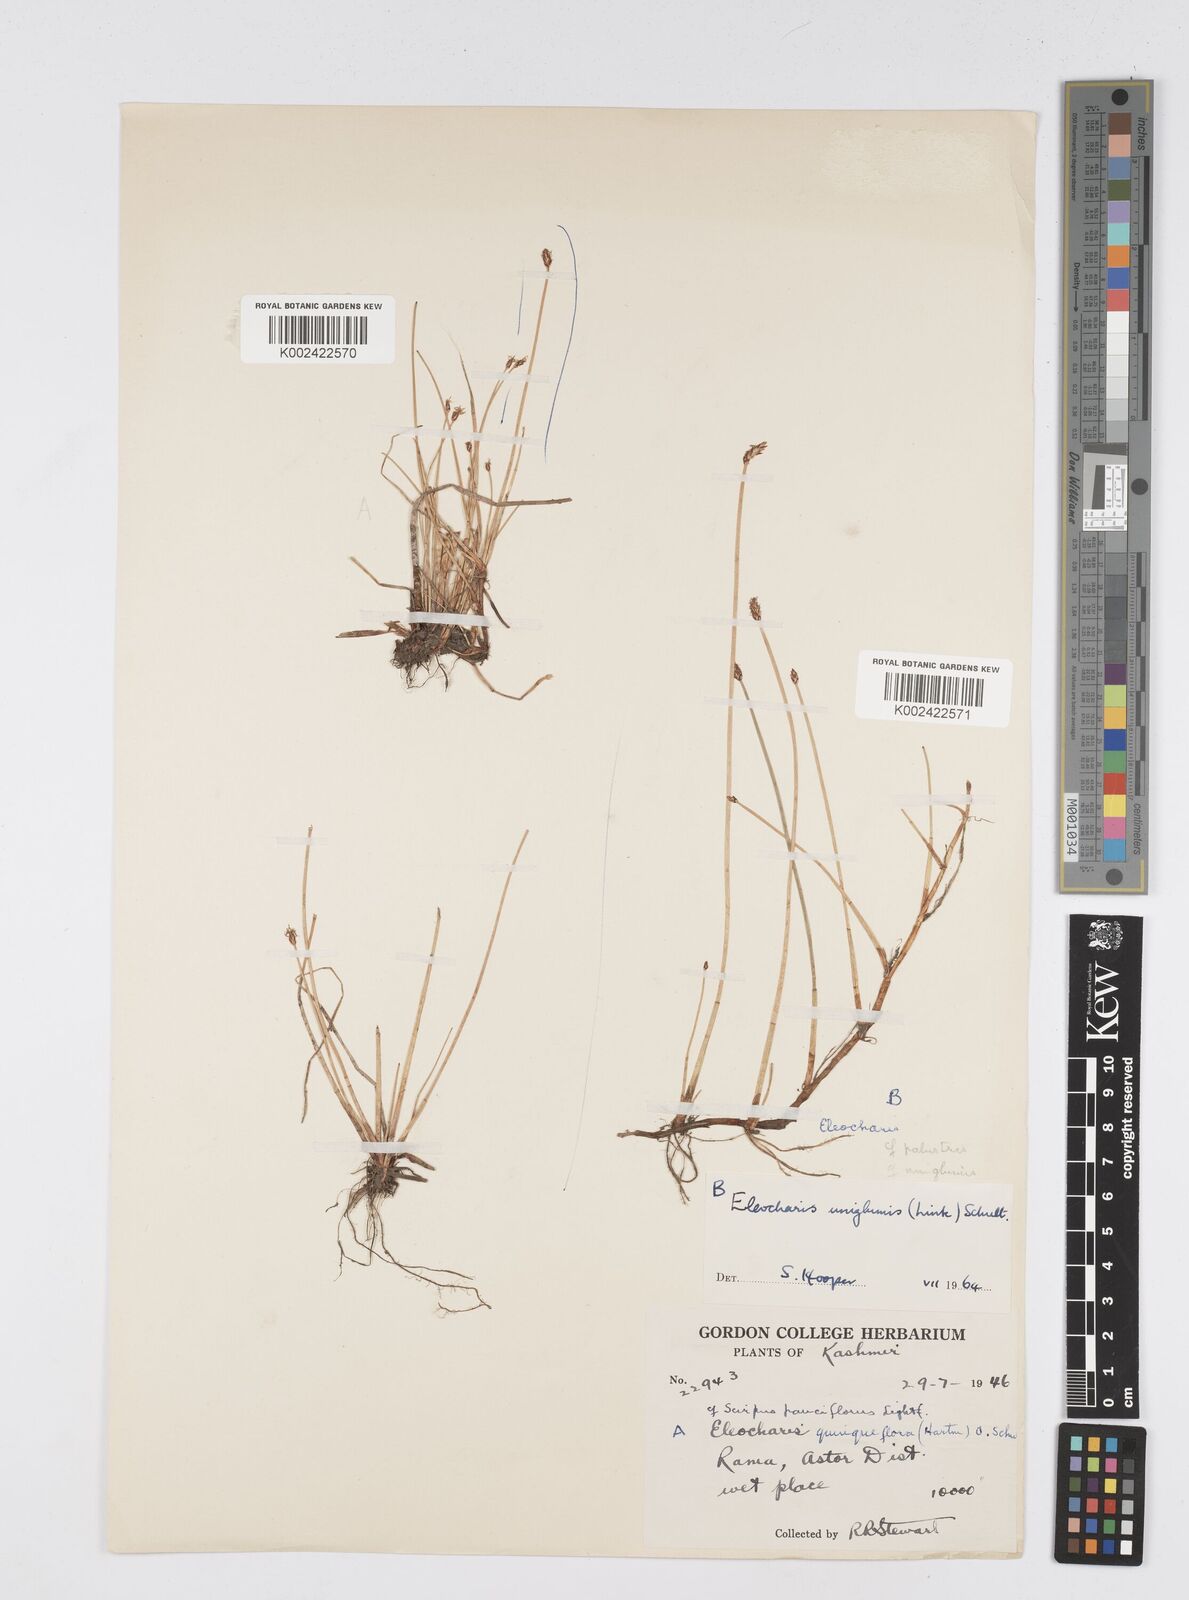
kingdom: Plantae
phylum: Tracheophyta
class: Liliopsida
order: Poales
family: Cyperaceae
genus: Eleocharis
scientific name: Eleocharis uniglumis
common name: Slender spike-rush
